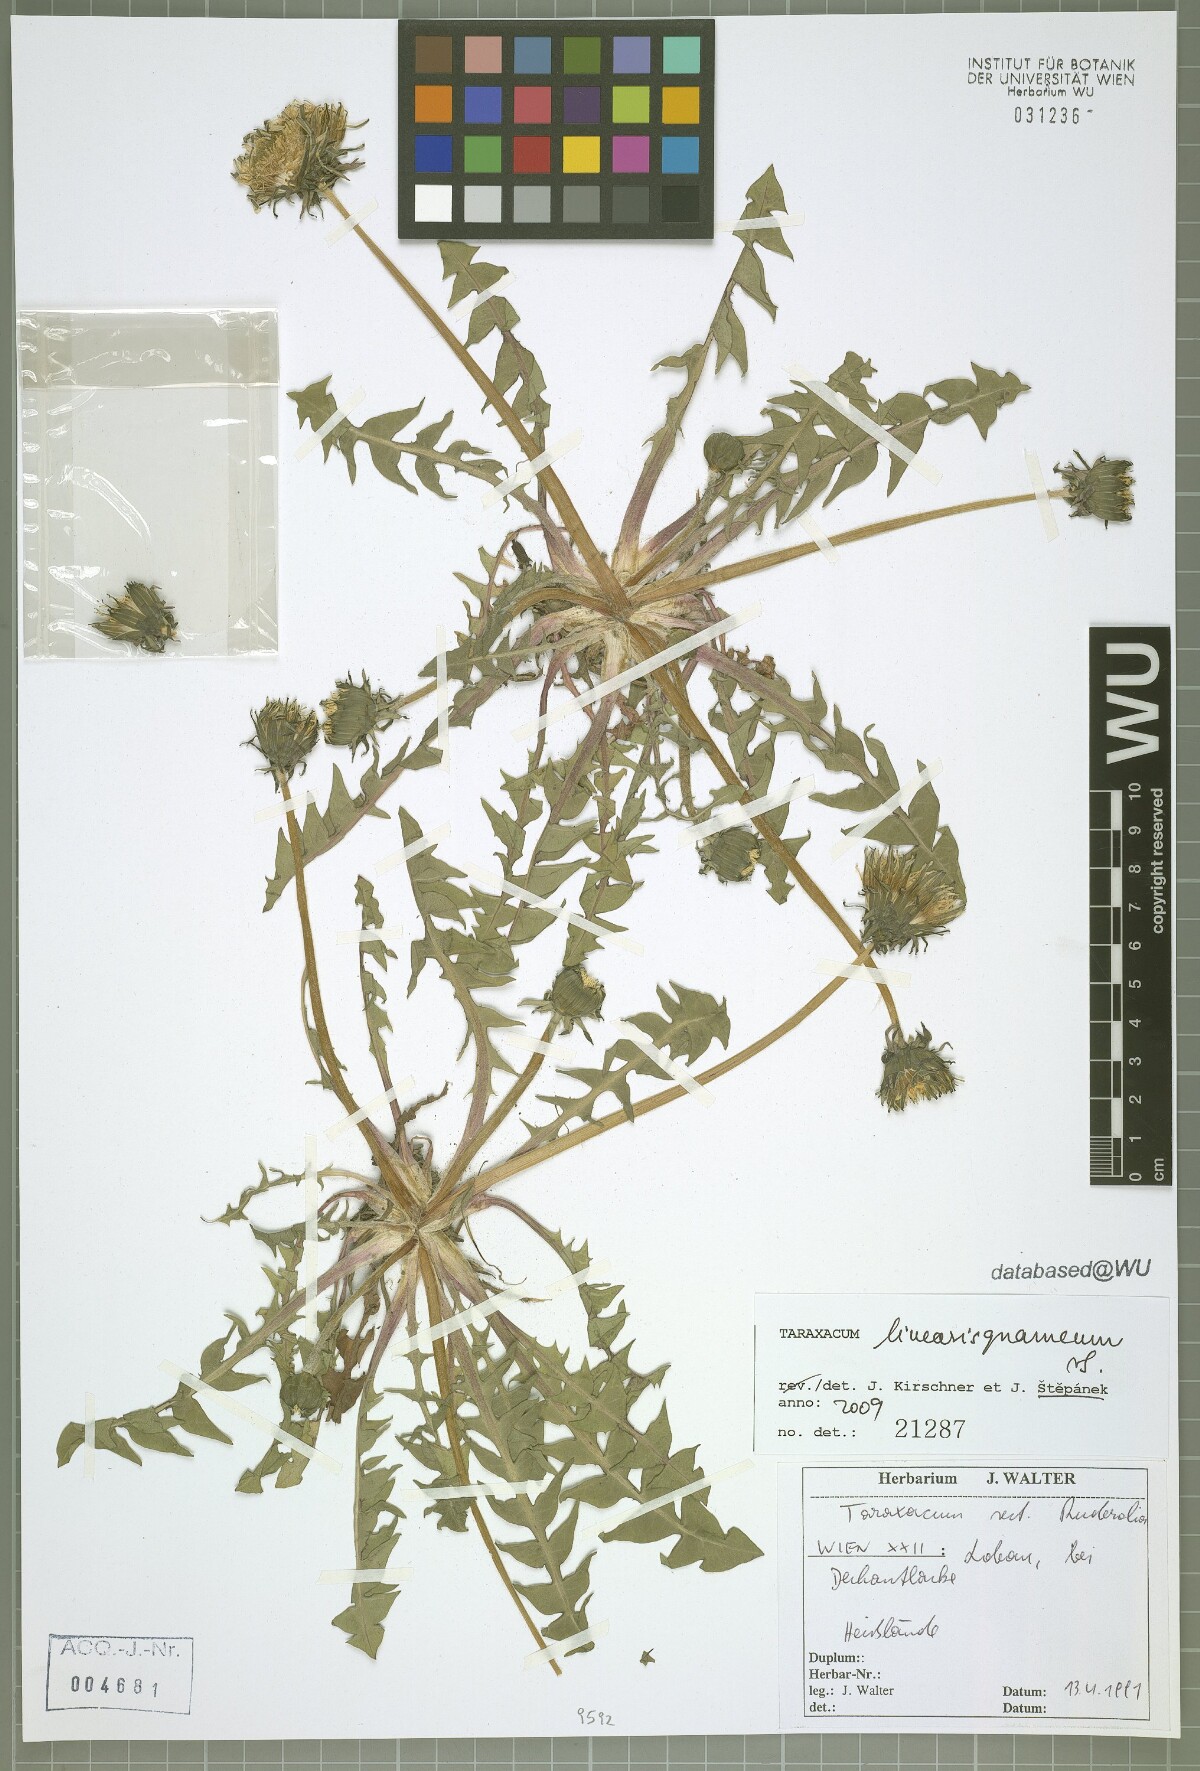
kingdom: Plantae
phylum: Tracheophyta
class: Magnoliopsida
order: Asterales
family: Asteraceae
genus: Taraxacum
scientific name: Taraxacum
